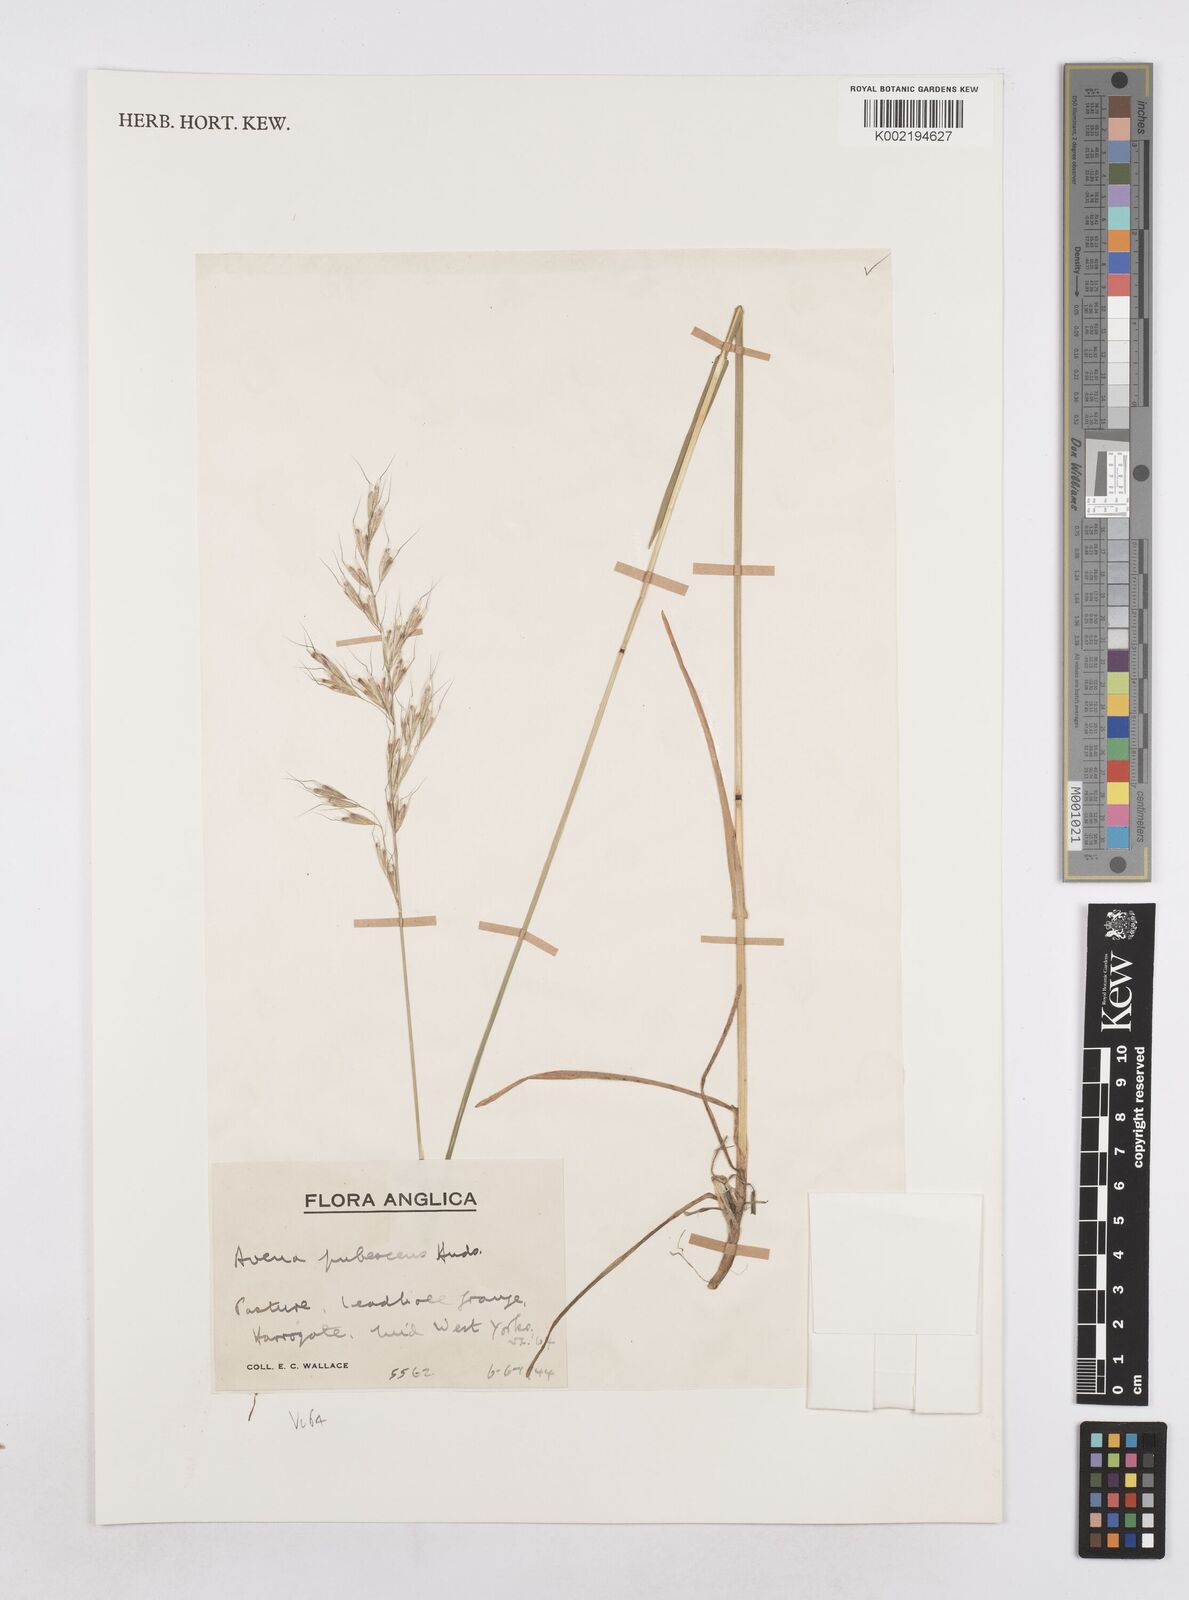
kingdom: Plantae
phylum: Tracheophyta
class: Liliopsida
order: Poales
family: Poaceae
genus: Avenula
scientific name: Avenula pubescens
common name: Downy alpine oatgrass
